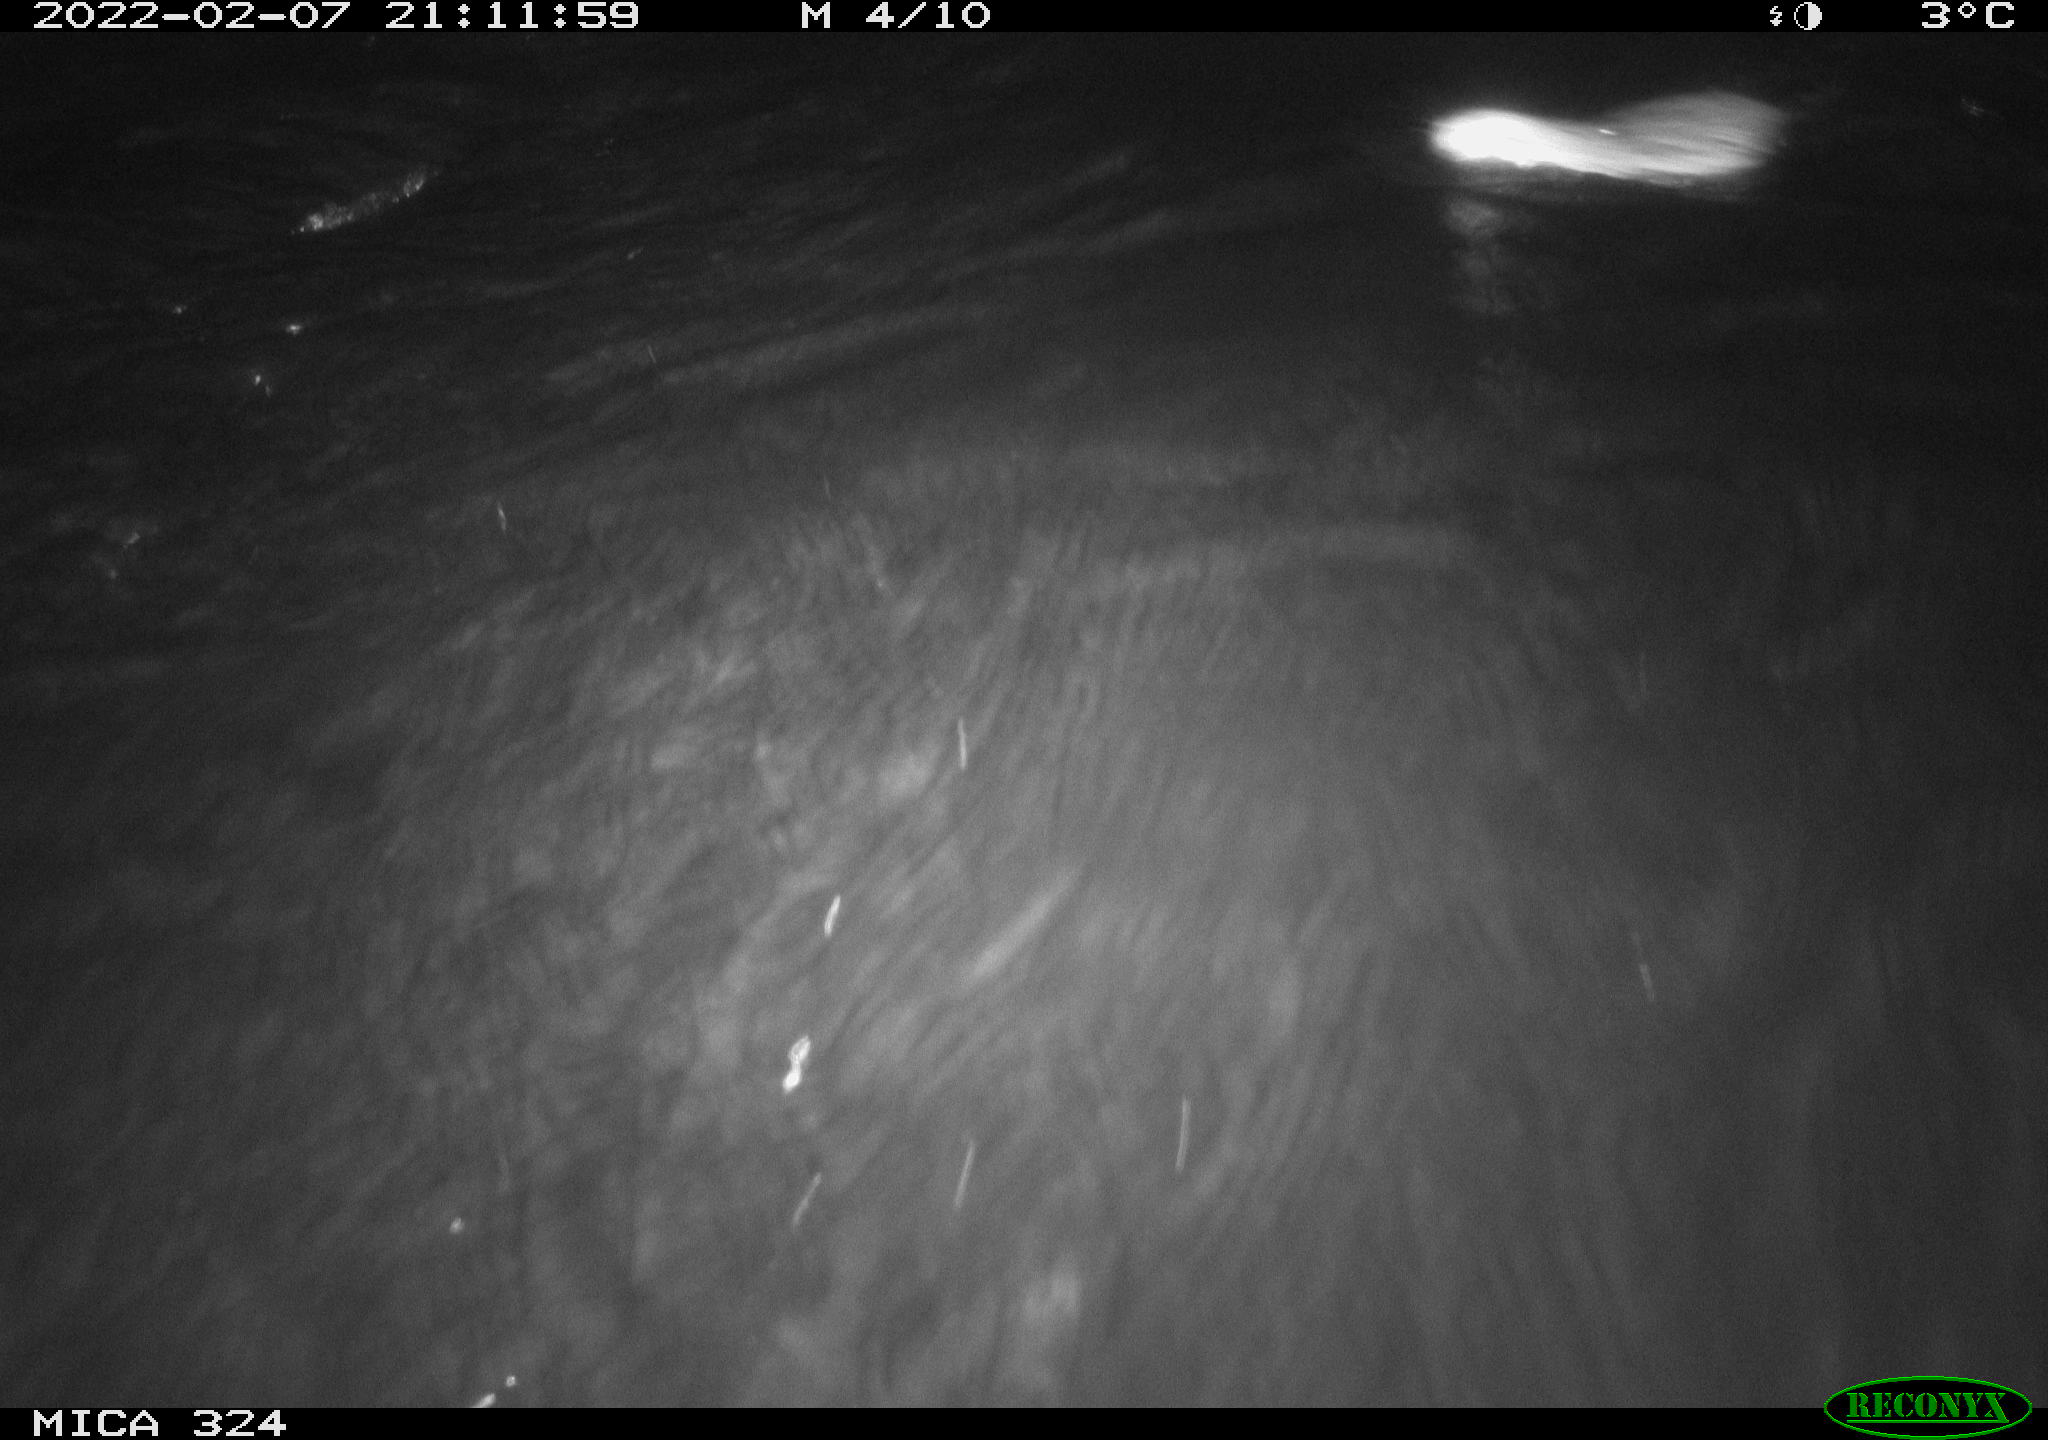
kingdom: Animalia
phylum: Chordata
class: Mammalia
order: Rodentia
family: Cricetidae
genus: Ondatra
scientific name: Ondatra zibethicus
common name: Muskrat
